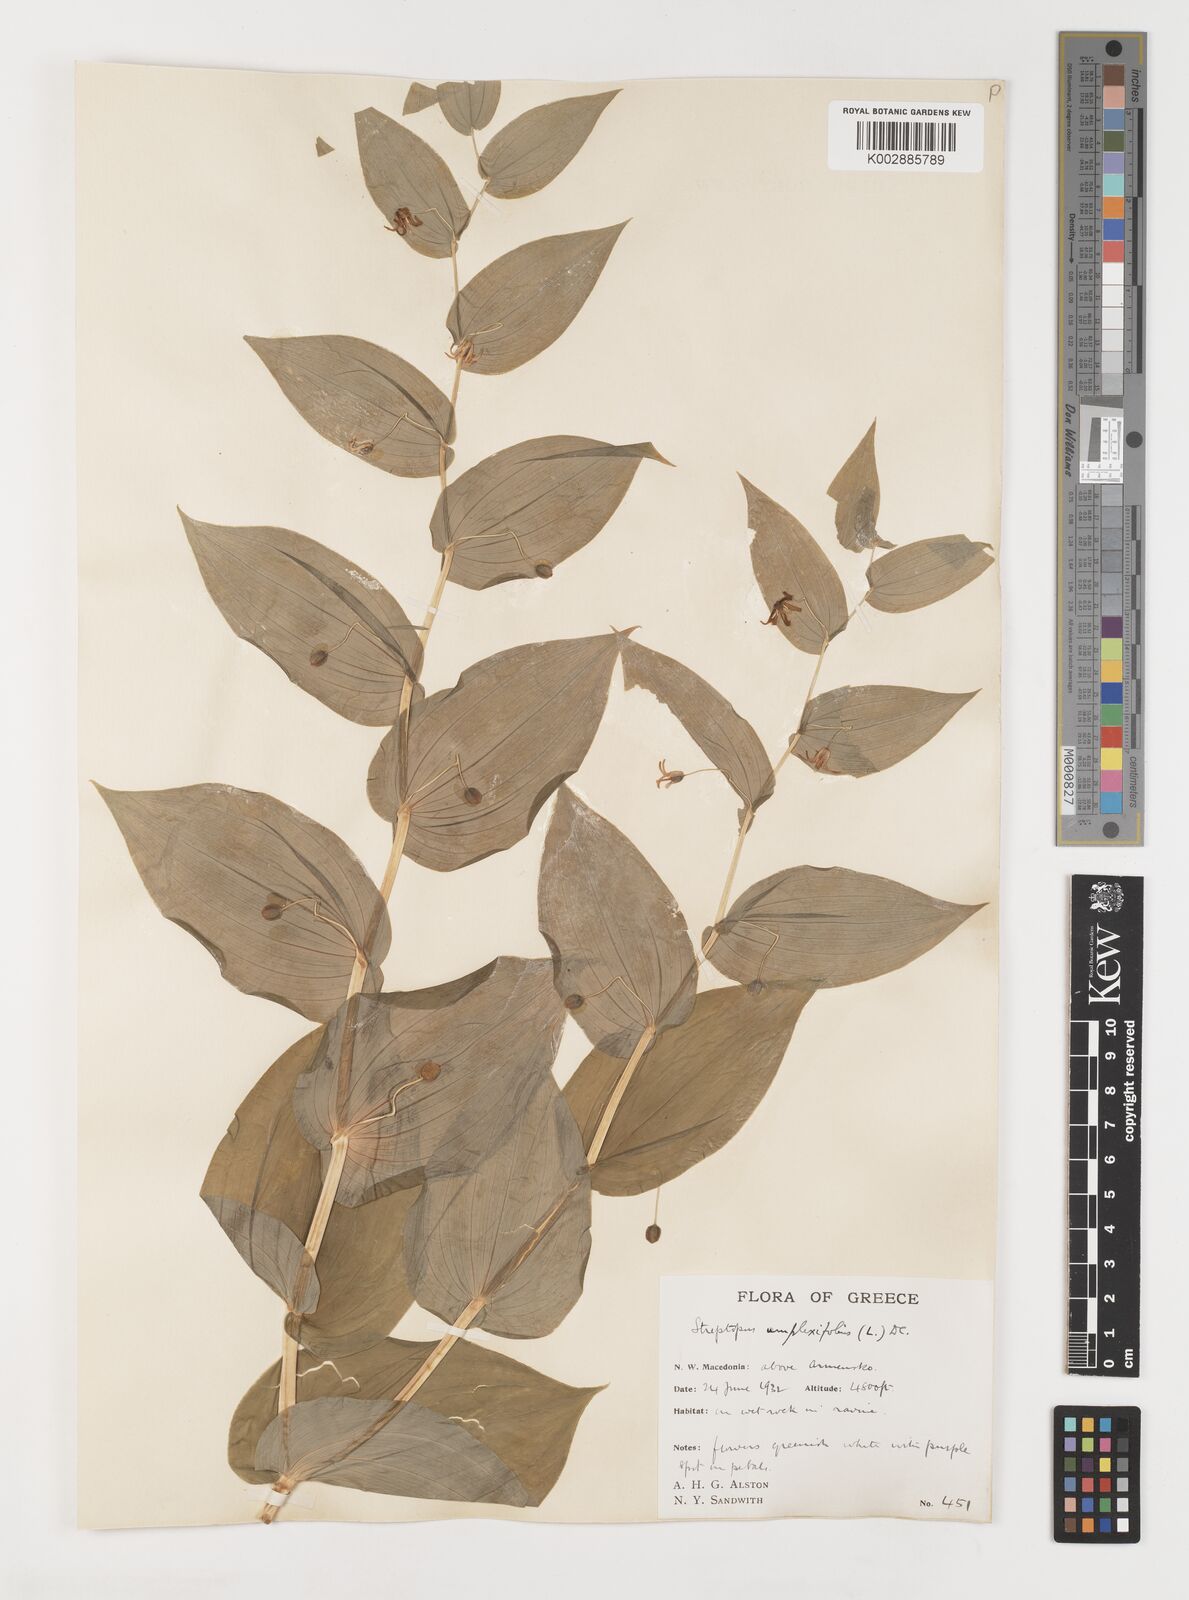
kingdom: Plantae
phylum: Tracheophyta
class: Liliopsida
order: Liliales
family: Liliaceae
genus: Streptopus
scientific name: Streptopus amplexifolius
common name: Clasp twisted stalk
